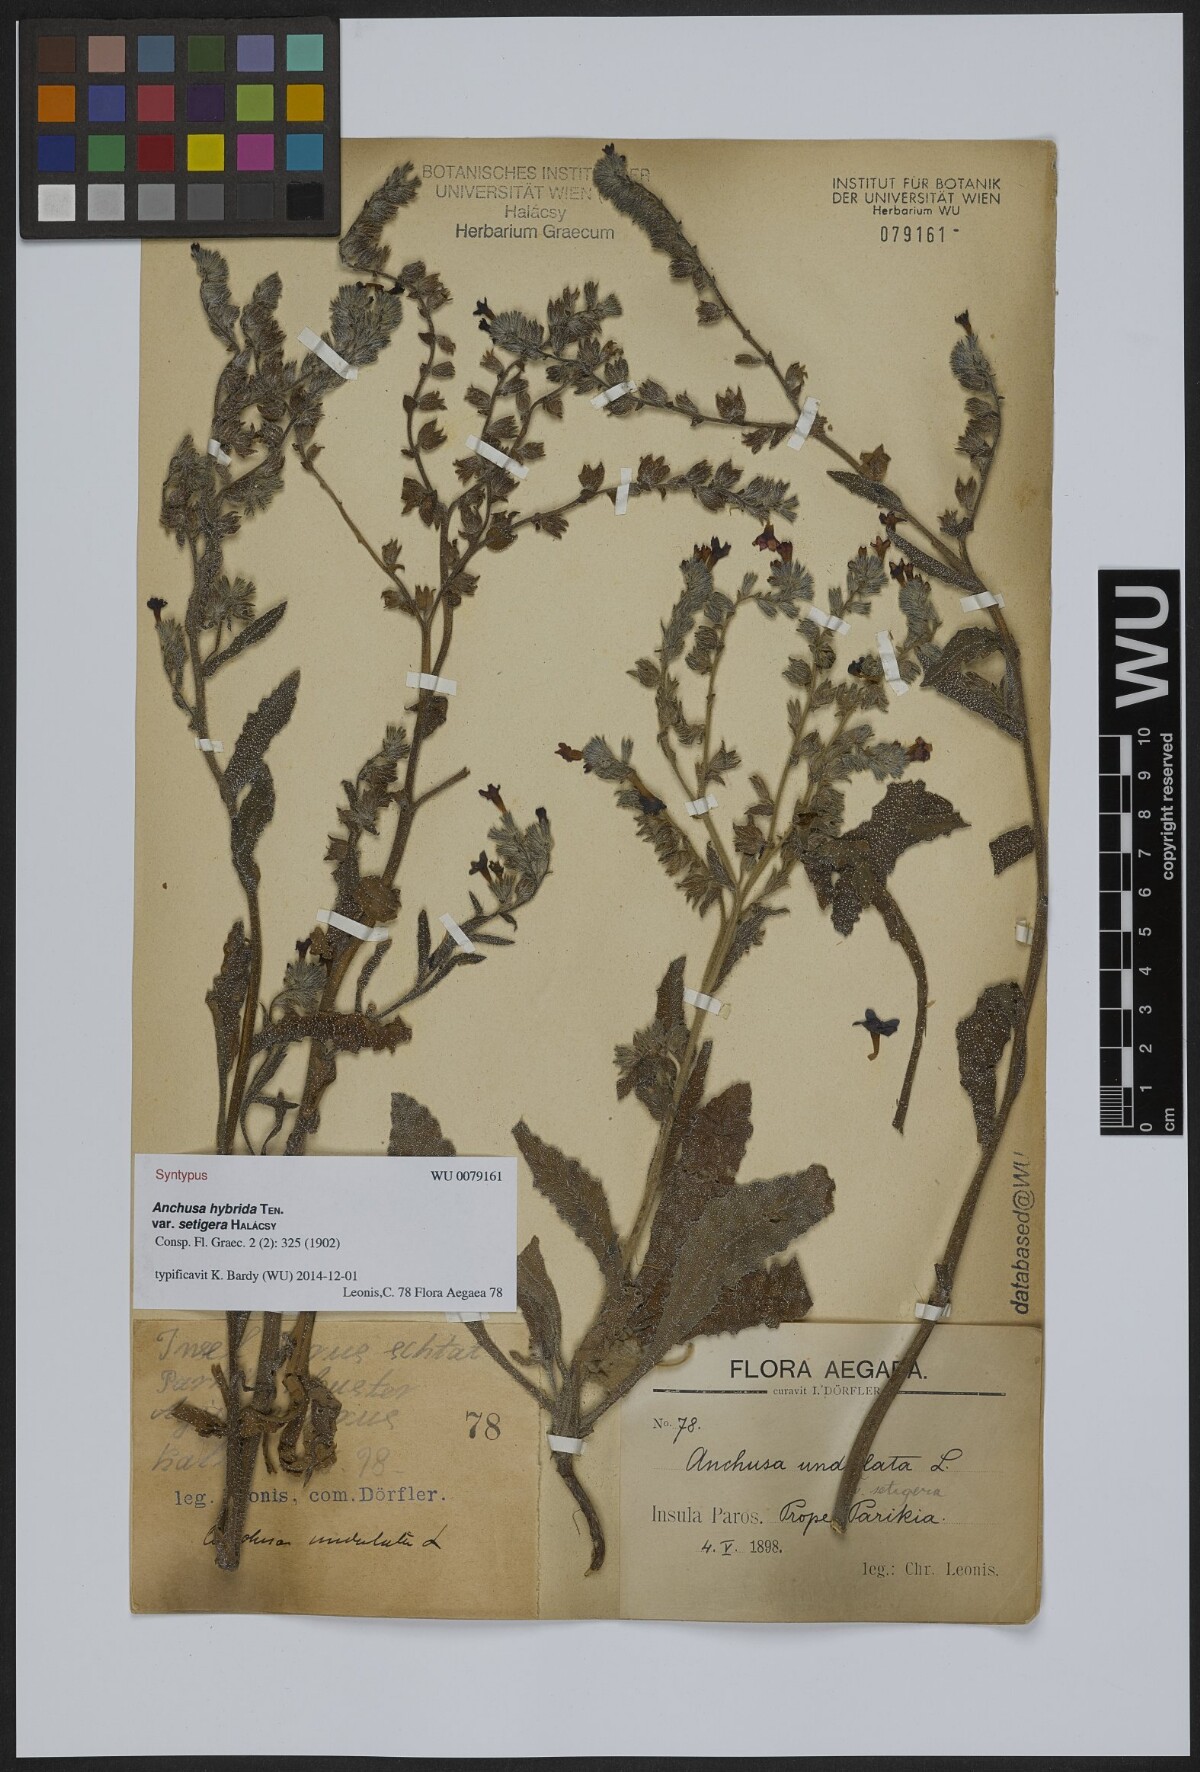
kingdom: Plantae
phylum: Tracheophyta
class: Magnoliopsida
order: Boraginales
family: Boraginaceae
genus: Anchusa
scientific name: Anchusa hybrida
